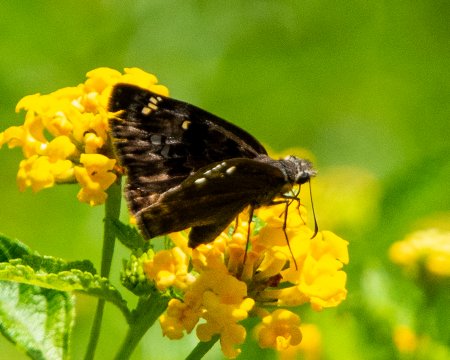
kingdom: Animalia
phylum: Arthropoda
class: Insecta
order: Lepidoptera
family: Hesperiidae
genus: Gesta
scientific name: Gesta
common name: Horace's Duskywing
